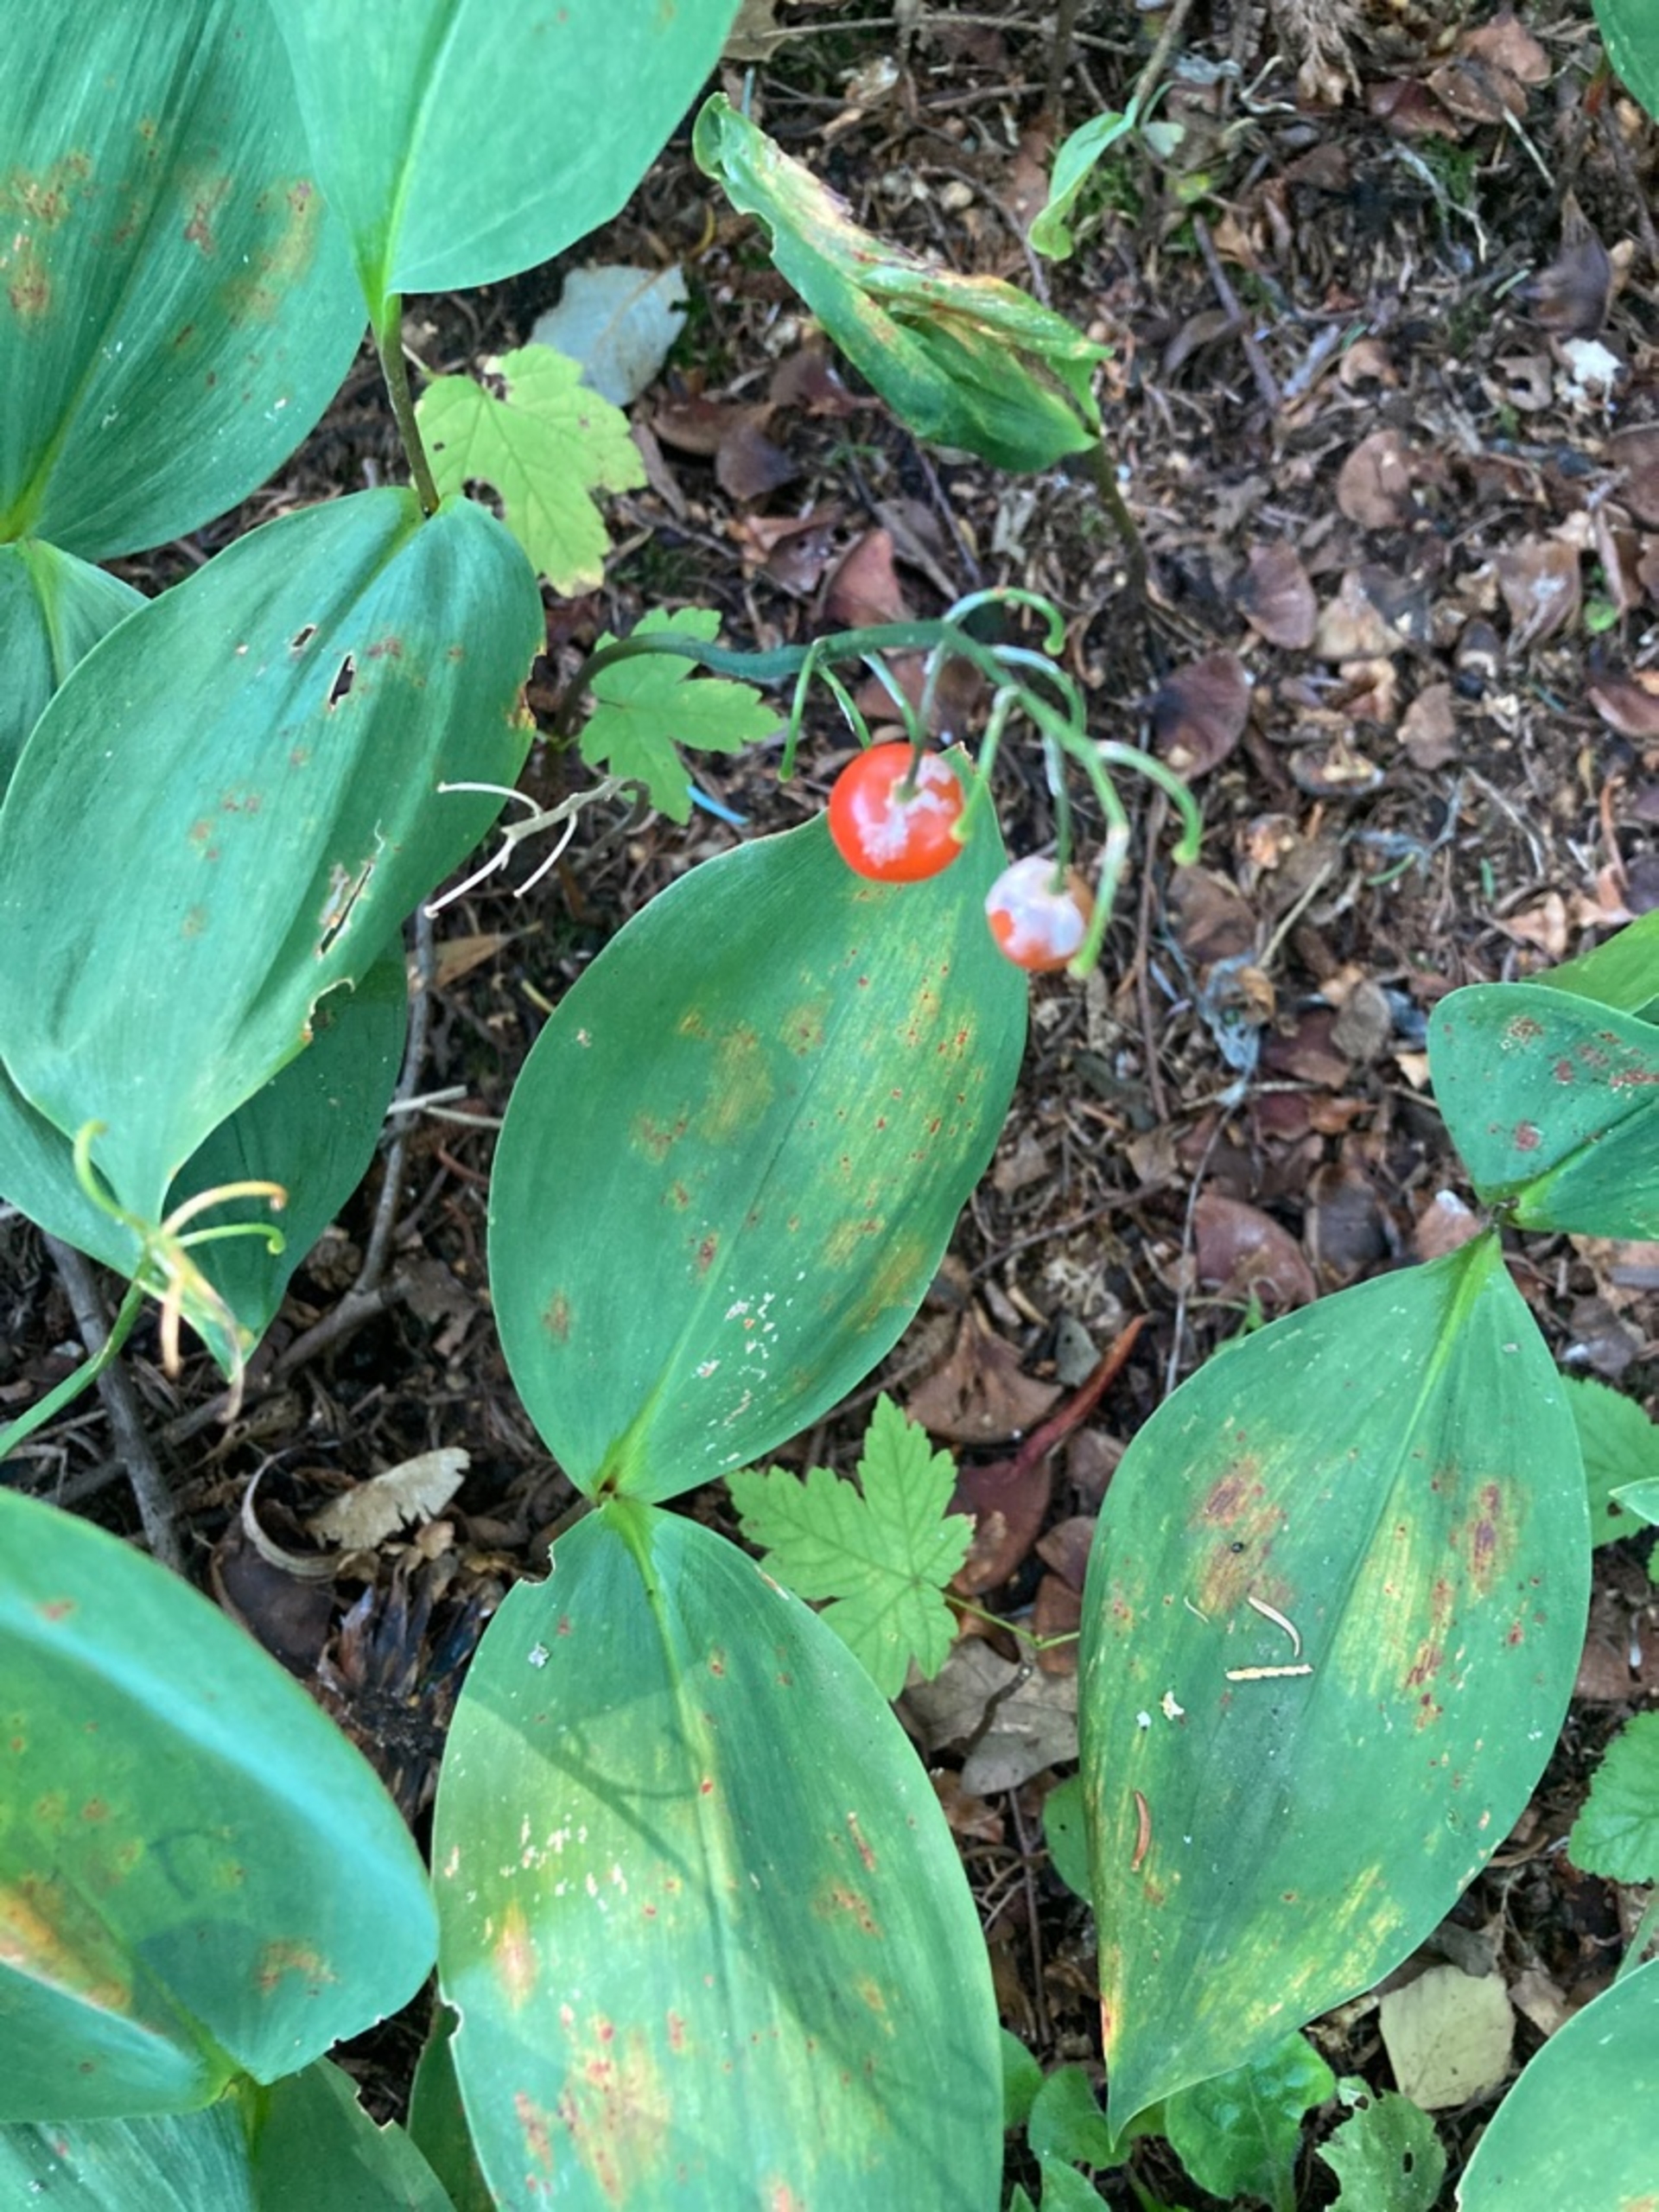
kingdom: Plantae
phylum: Tracheophyta
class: Liliopsida
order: Asparagales
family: Asparagaceae
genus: Convallaria
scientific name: Convallaria majalis
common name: Liljekonval
